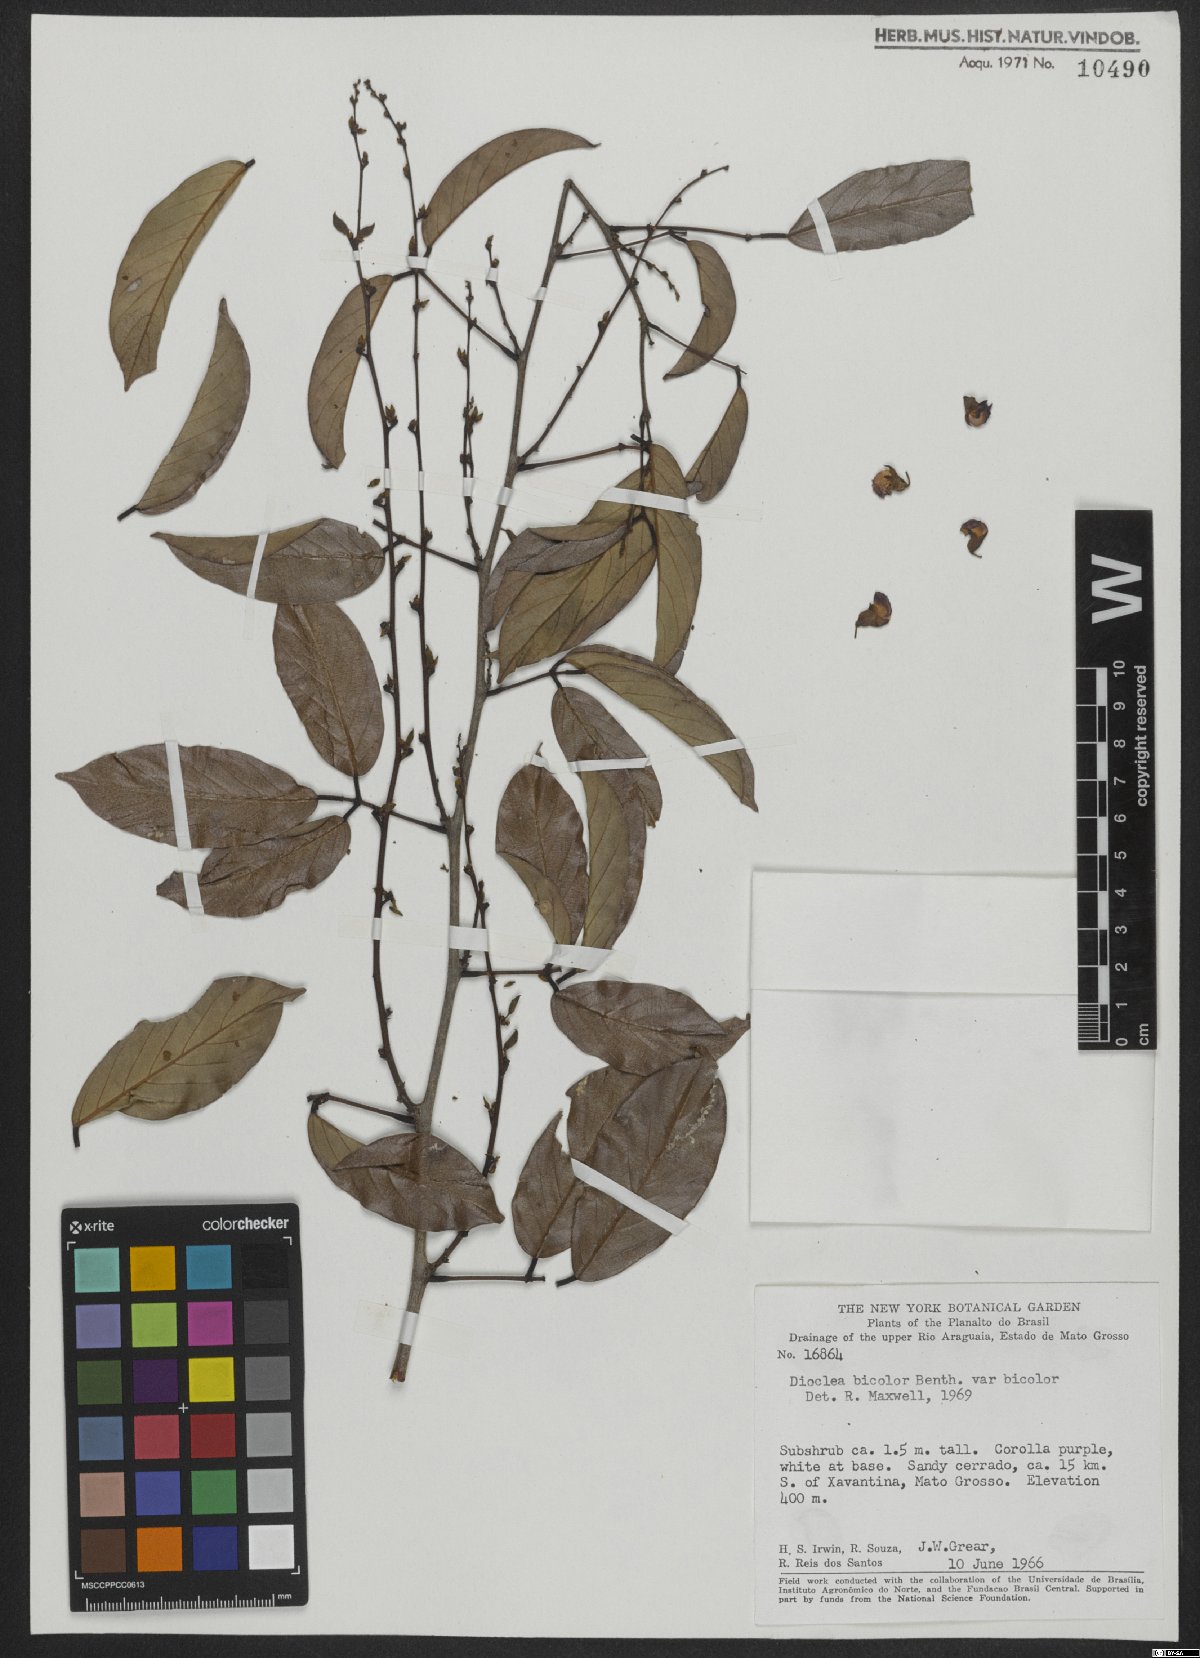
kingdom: Plantae
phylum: Tracheophyta
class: Magnoliopsida
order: Fabales
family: Fabaceae
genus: Macropsychanthus
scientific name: Macropsychanthus bicolor
